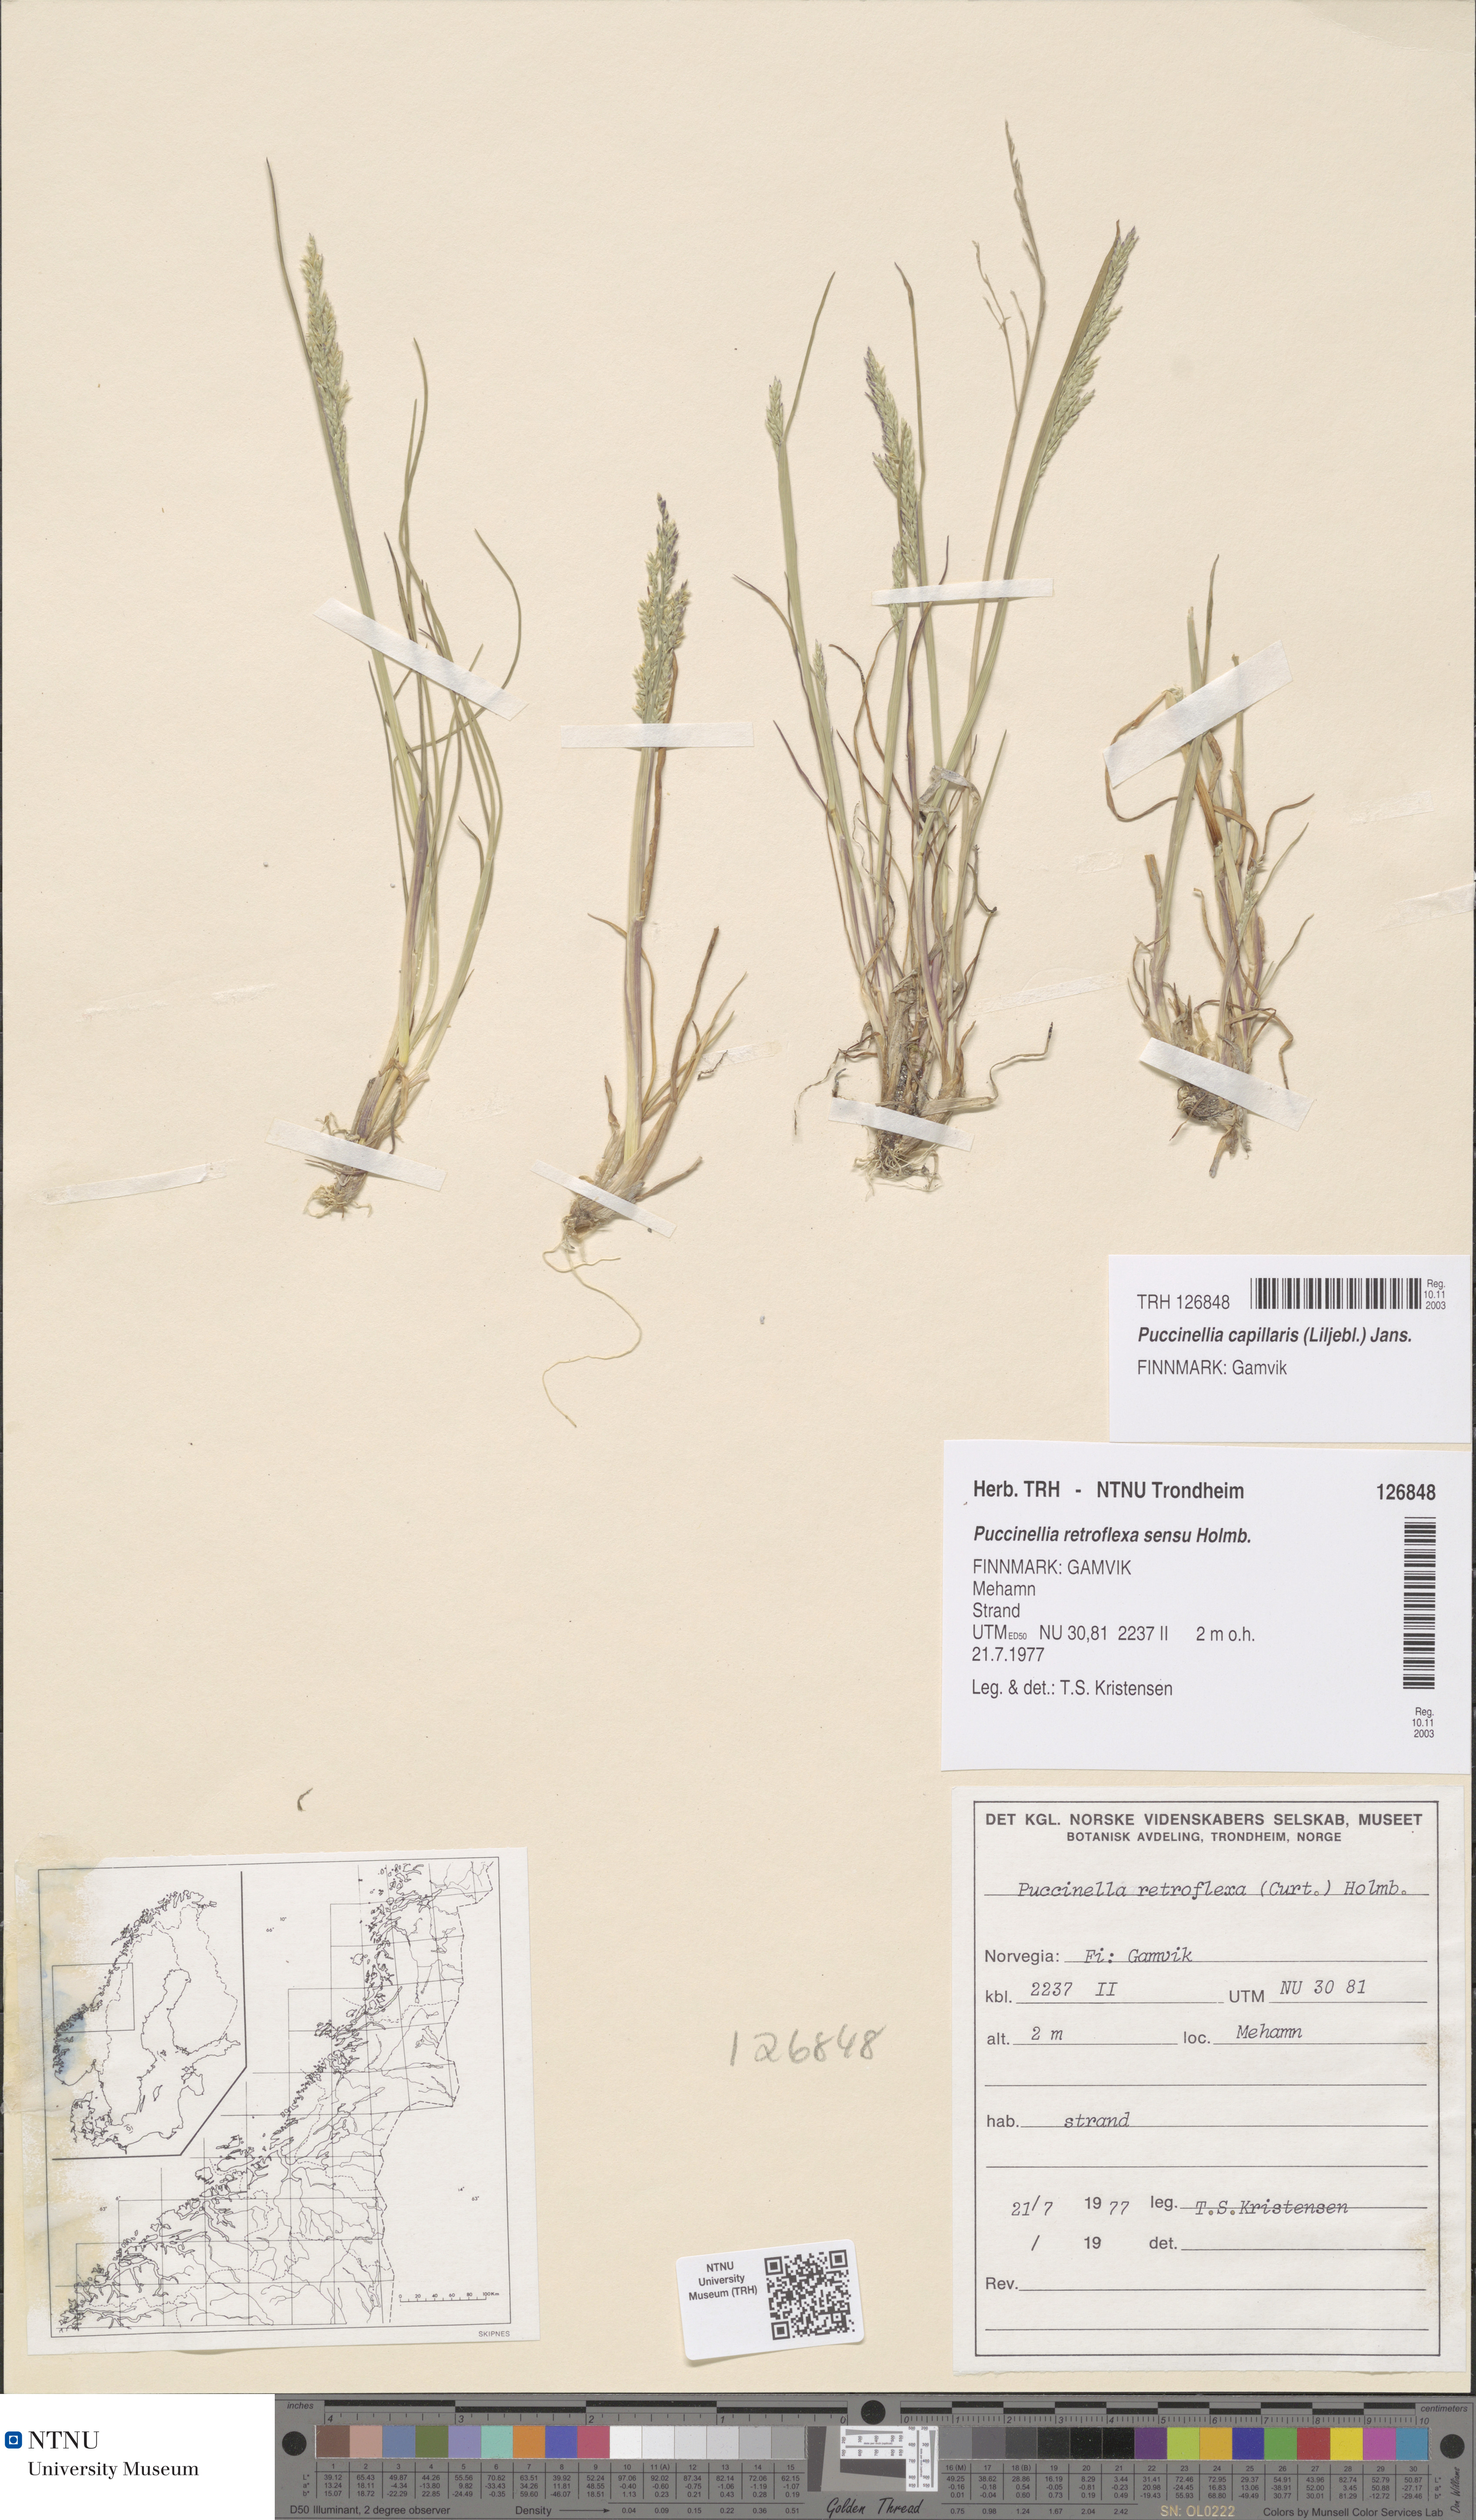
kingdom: Plantae
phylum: Tracheophyta
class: Liliopsida
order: Poales
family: Poaceae
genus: Puccinellia
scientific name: Puccinellia distans
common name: Weeping alkaligrass
